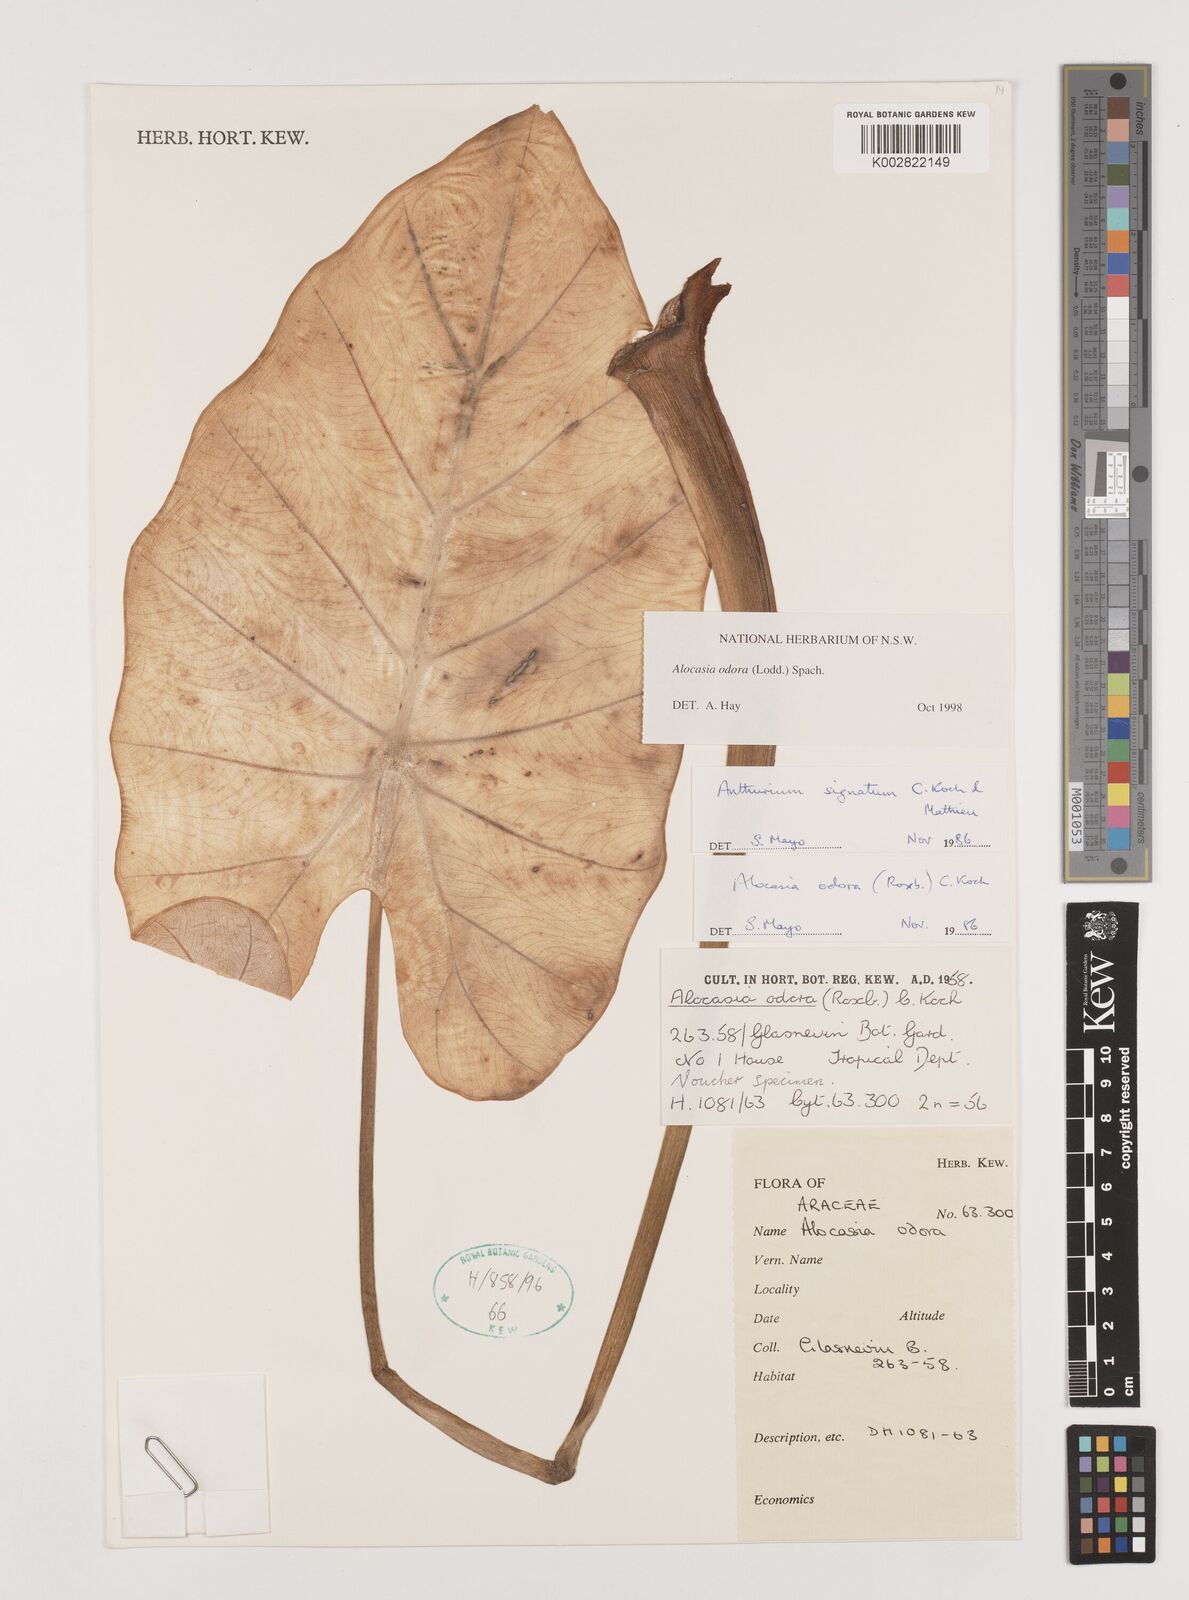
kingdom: Plantae
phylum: Tracheophyta
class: Liliopsida
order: Alismatales
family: Araceae
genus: Alocasia
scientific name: Alocasia odora
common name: Asian taro
